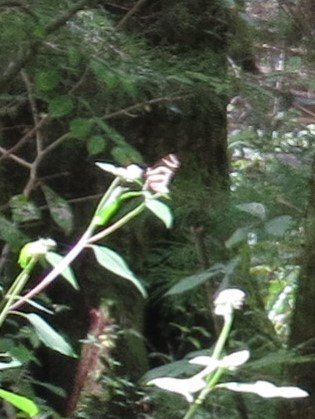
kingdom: Animalia
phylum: Arthropoda
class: Insecta
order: Lepidoptera
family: Nymphalidae
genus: Heliconius
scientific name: Heliconius charithonia
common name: Zebra Longwing
